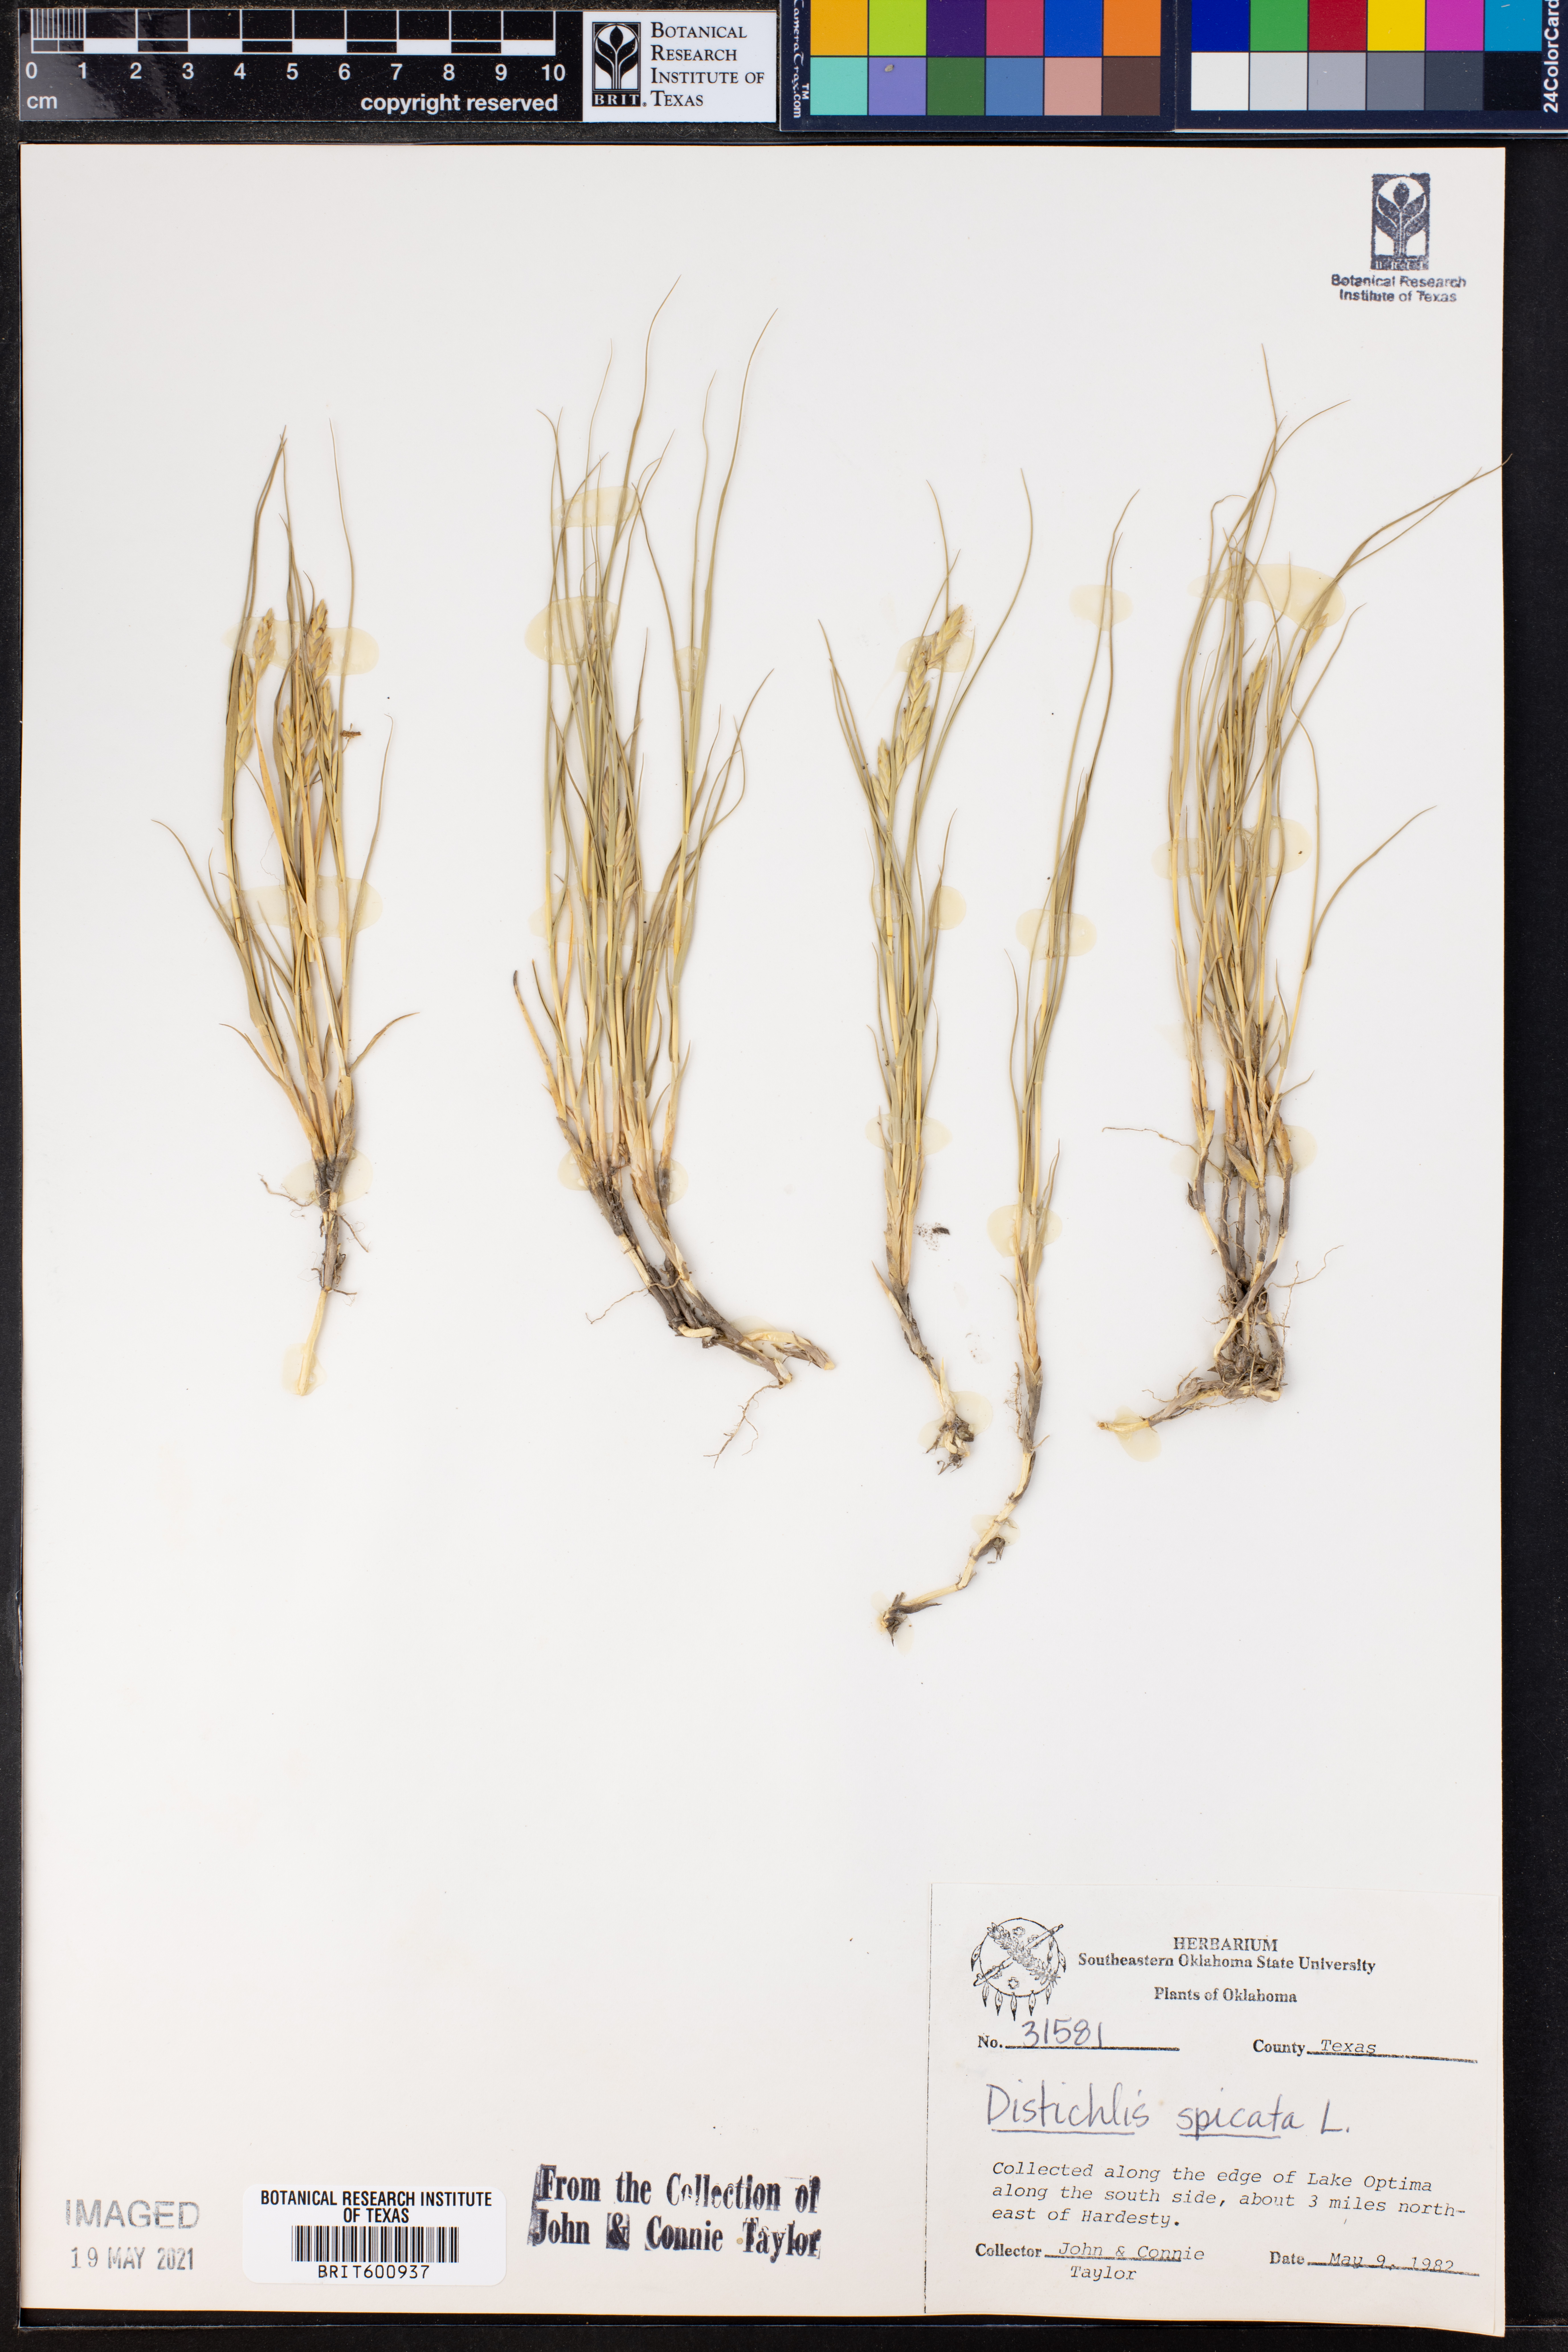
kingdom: Plantae
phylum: Tracheophyta
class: Liliopsida
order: Poales
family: Poaceae
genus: Distichlis
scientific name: Distichlis spicata
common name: Saltgrass
